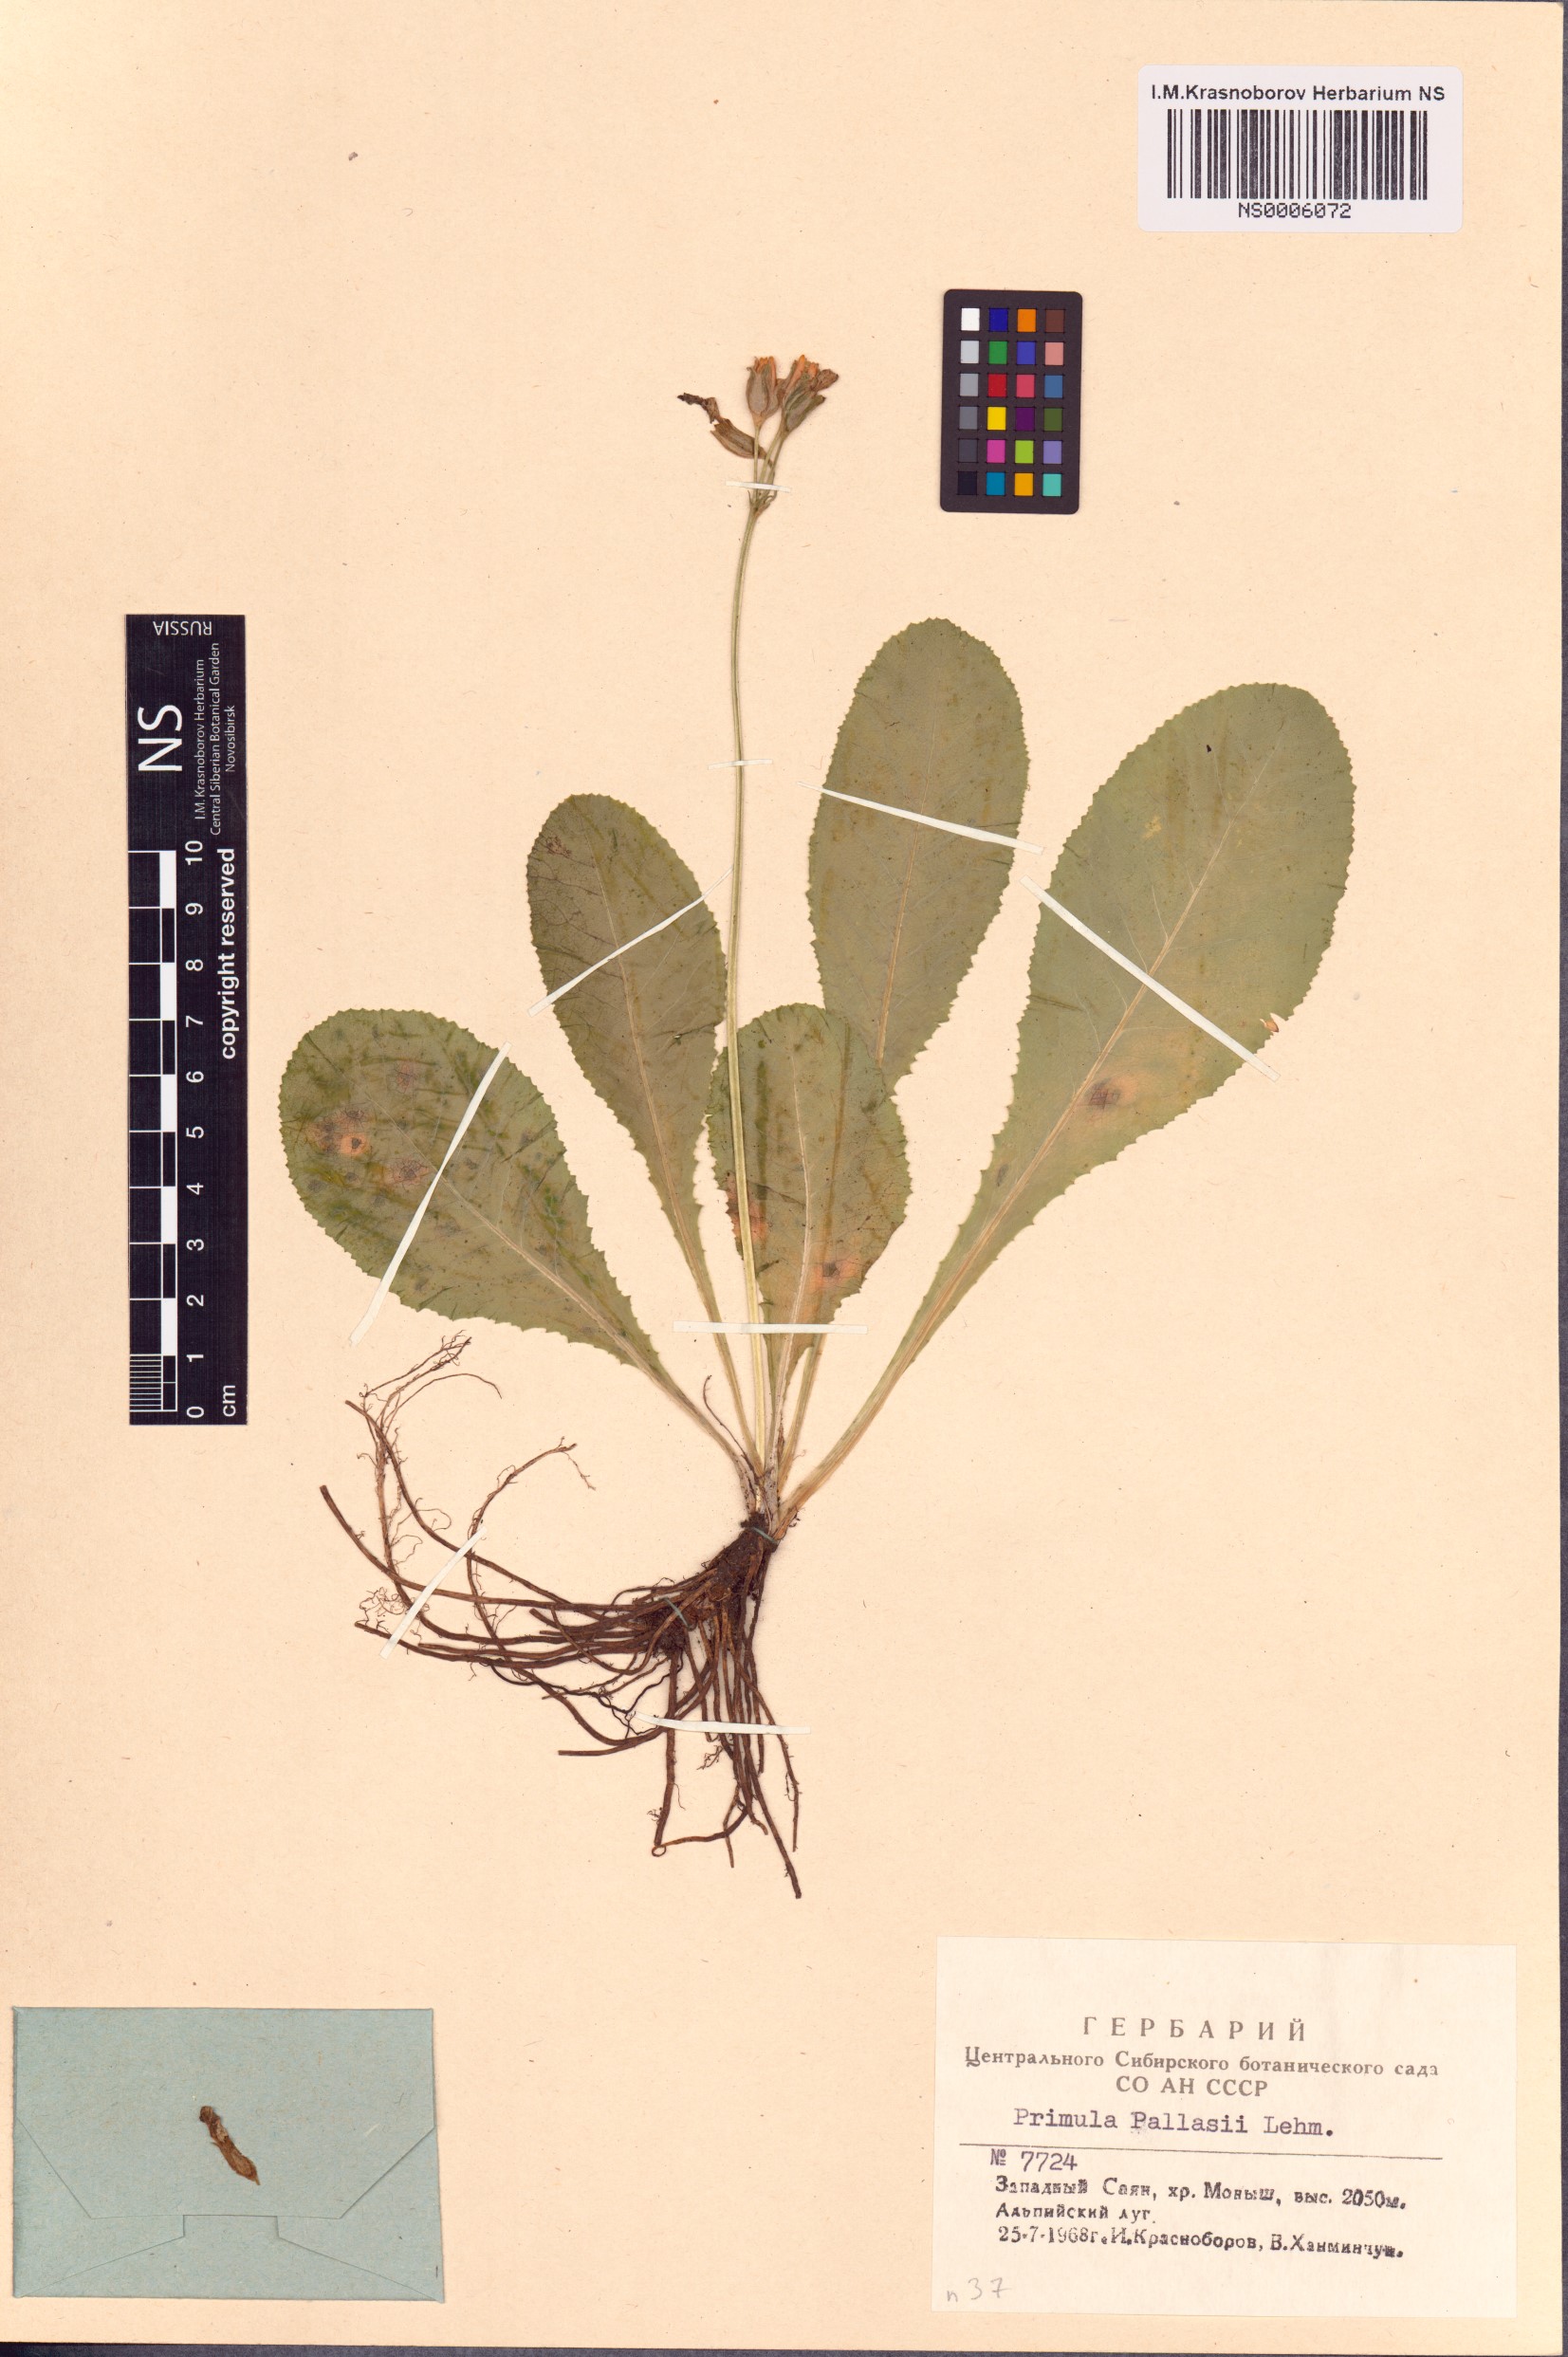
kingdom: Plantae
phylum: Tracheophyta
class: Magnoliopsida
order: Ericales
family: Primulaceae
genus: Primula
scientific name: Primula elatior
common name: Oxlip
